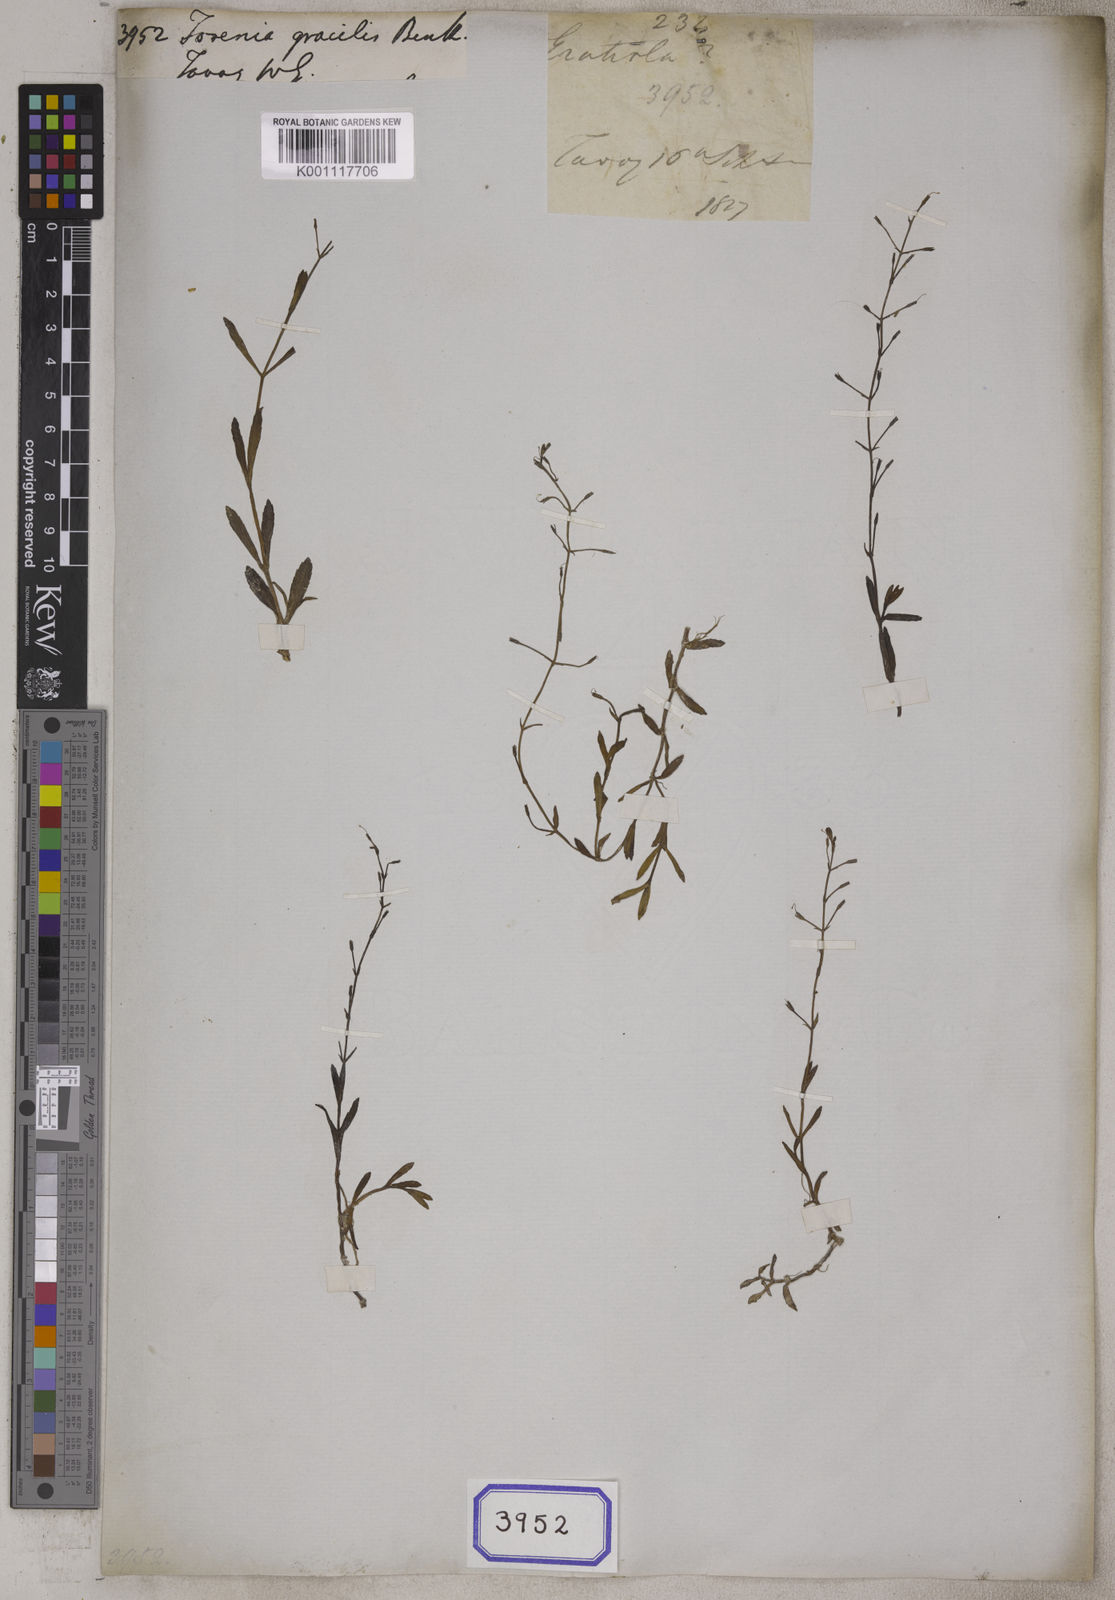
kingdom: Plantae
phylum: Tracheophyta
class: Magnoliopsida
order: Lamiales
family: Linderniaceae
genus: Bonnaya
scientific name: Bonnaya
